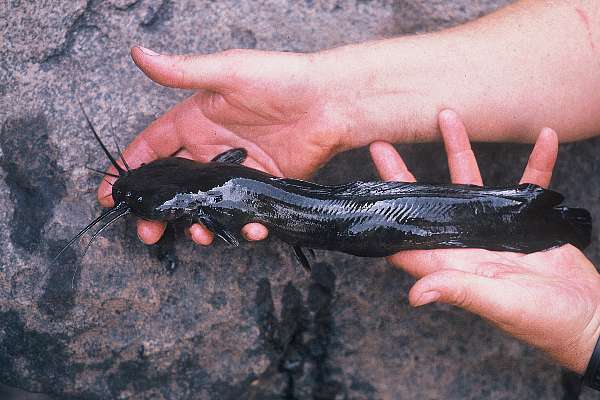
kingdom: Animalia
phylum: Chordata
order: Siluriformes
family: Clariidae
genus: Clariallabes
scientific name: Clariallabes platyprosopos
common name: Broadhead catfish
